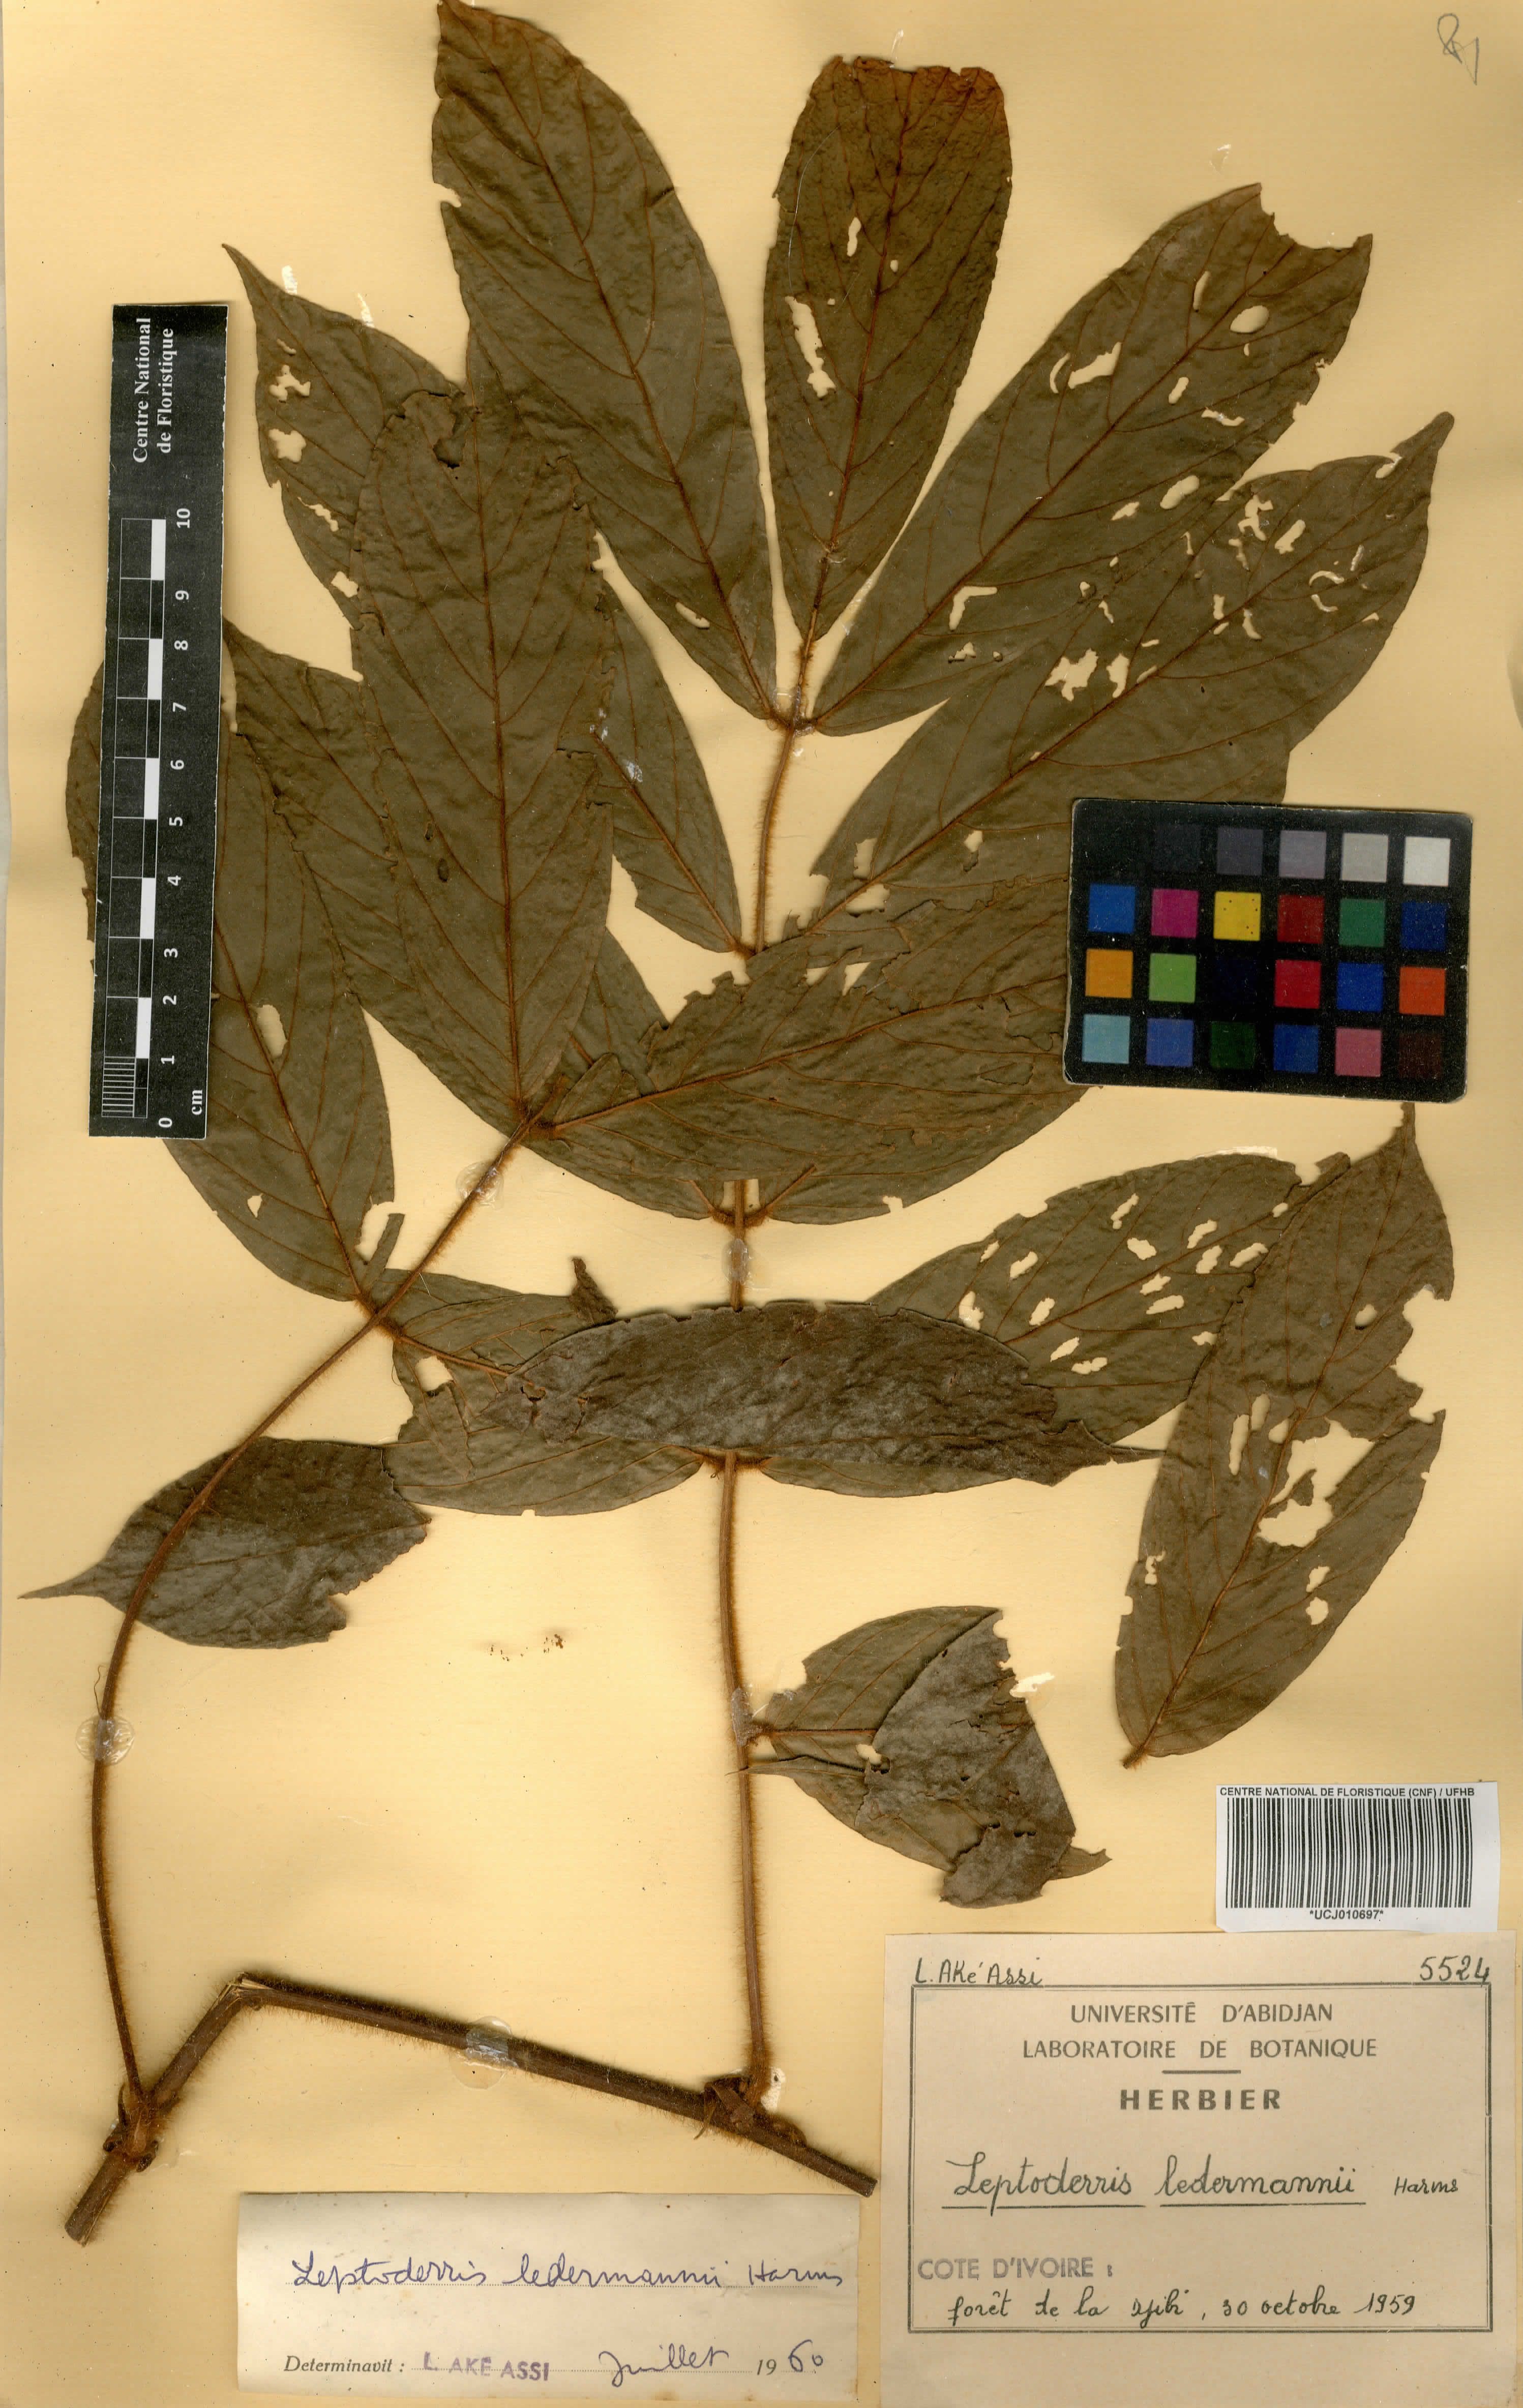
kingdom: Plantae
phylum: Tracheophyta
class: Magnoliopsida
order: Fabales
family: Fabaceae
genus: Leptoderris
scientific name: Leptoderris ledermannii
